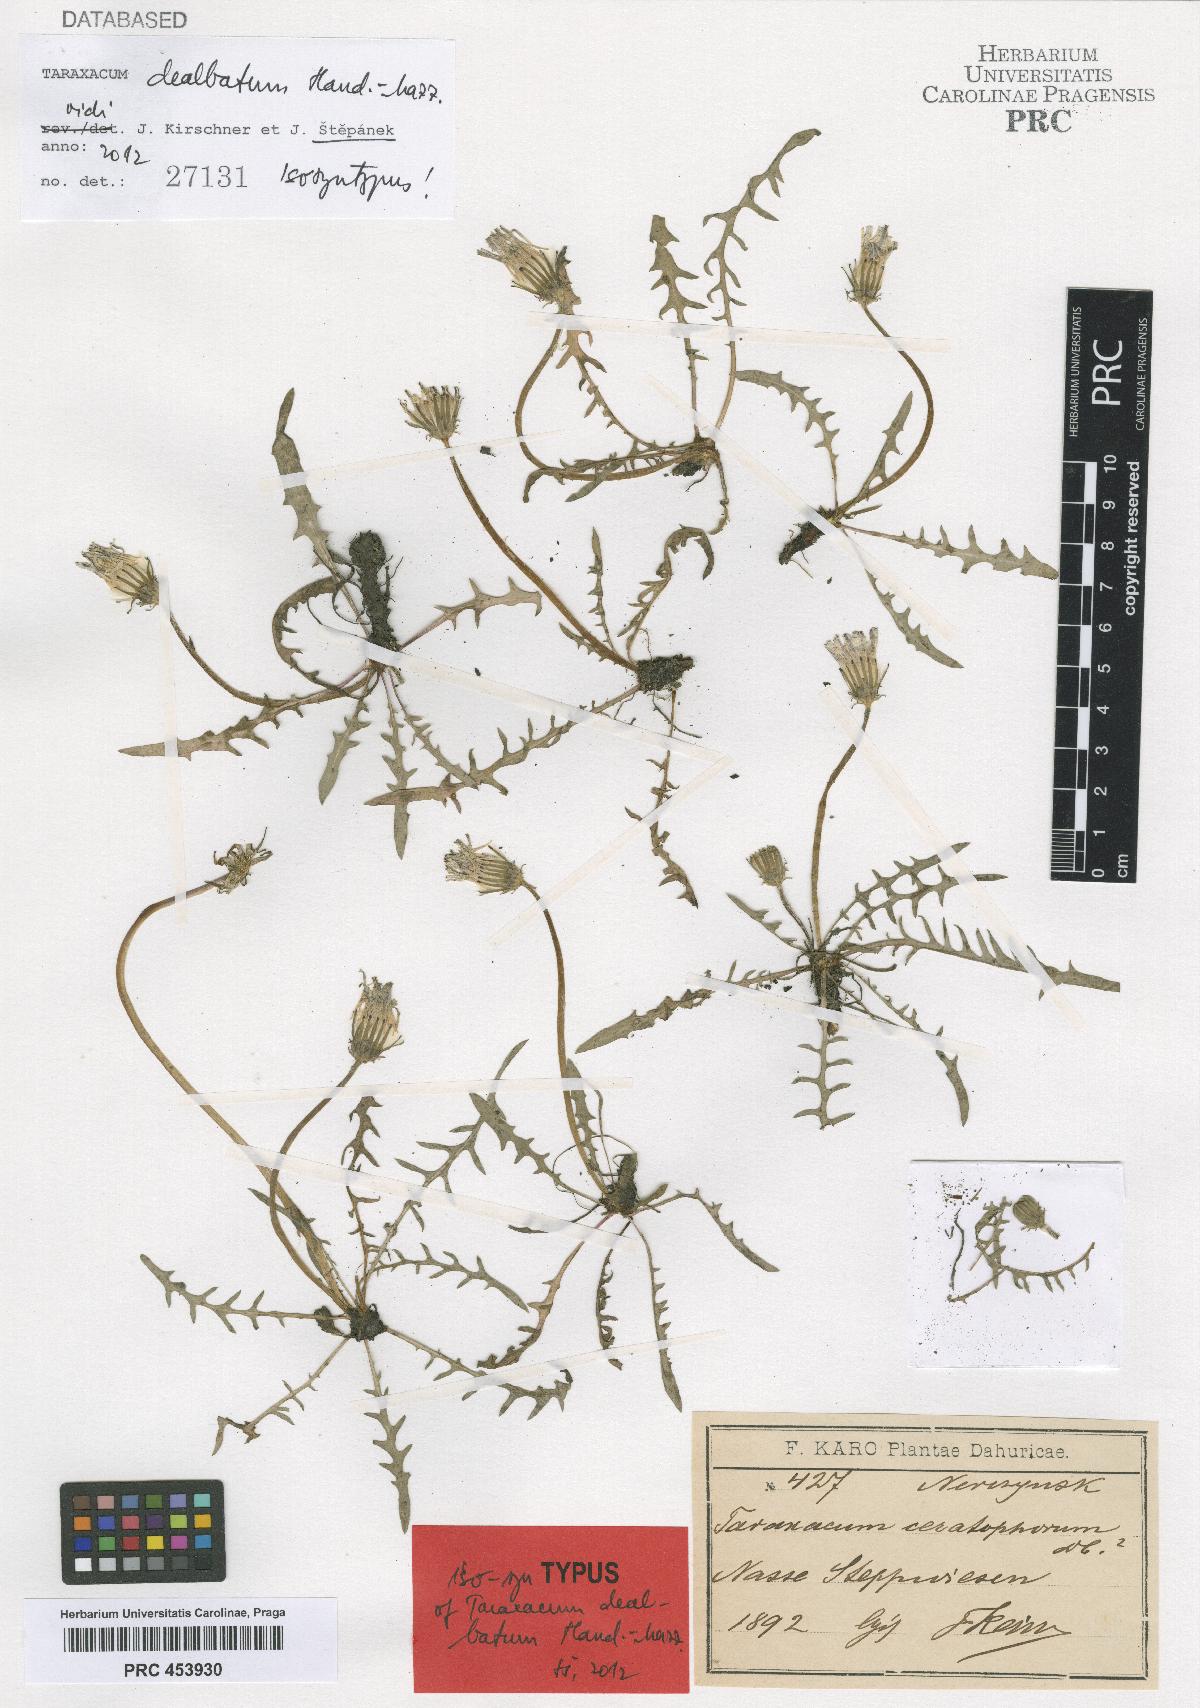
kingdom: Plantae
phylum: Tracheophyta
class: Magnoliopsida
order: Asterales
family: Asteraceae
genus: Taraxacum
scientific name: Taraxacum dealbatum
